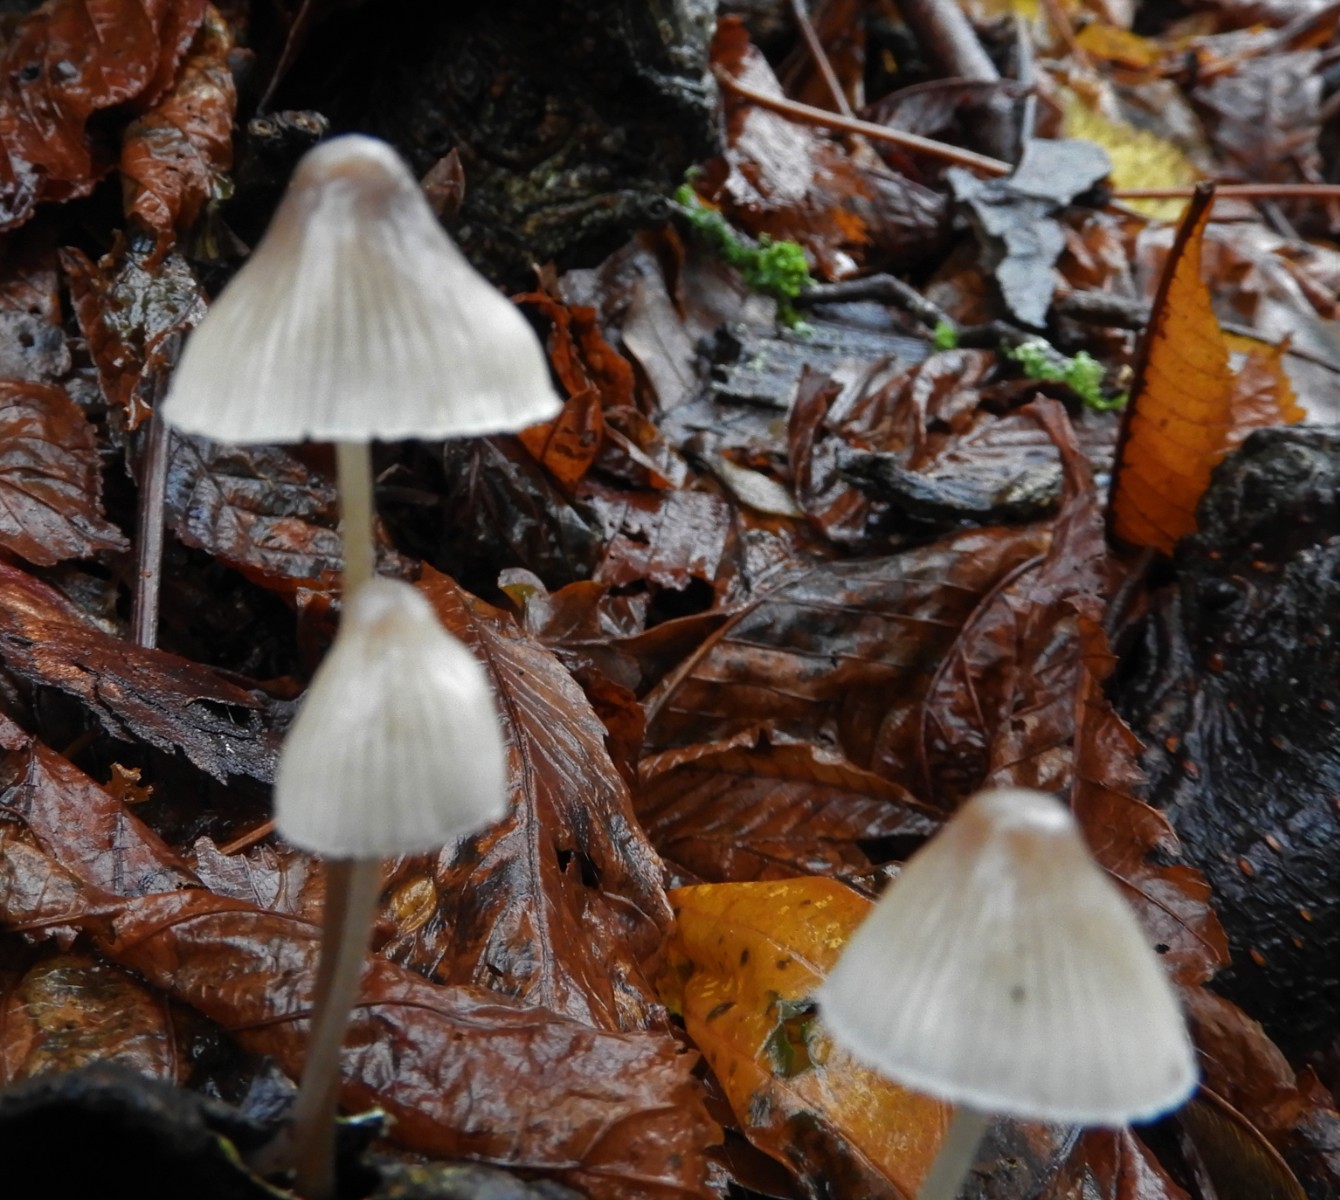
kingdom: Fungi
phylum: Basidiomycota
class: Agaricomycetes
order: Agaricales
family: Mycenaceae
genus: Mycena
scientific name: Mycena polygramma
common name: mangestribet huesvamp
